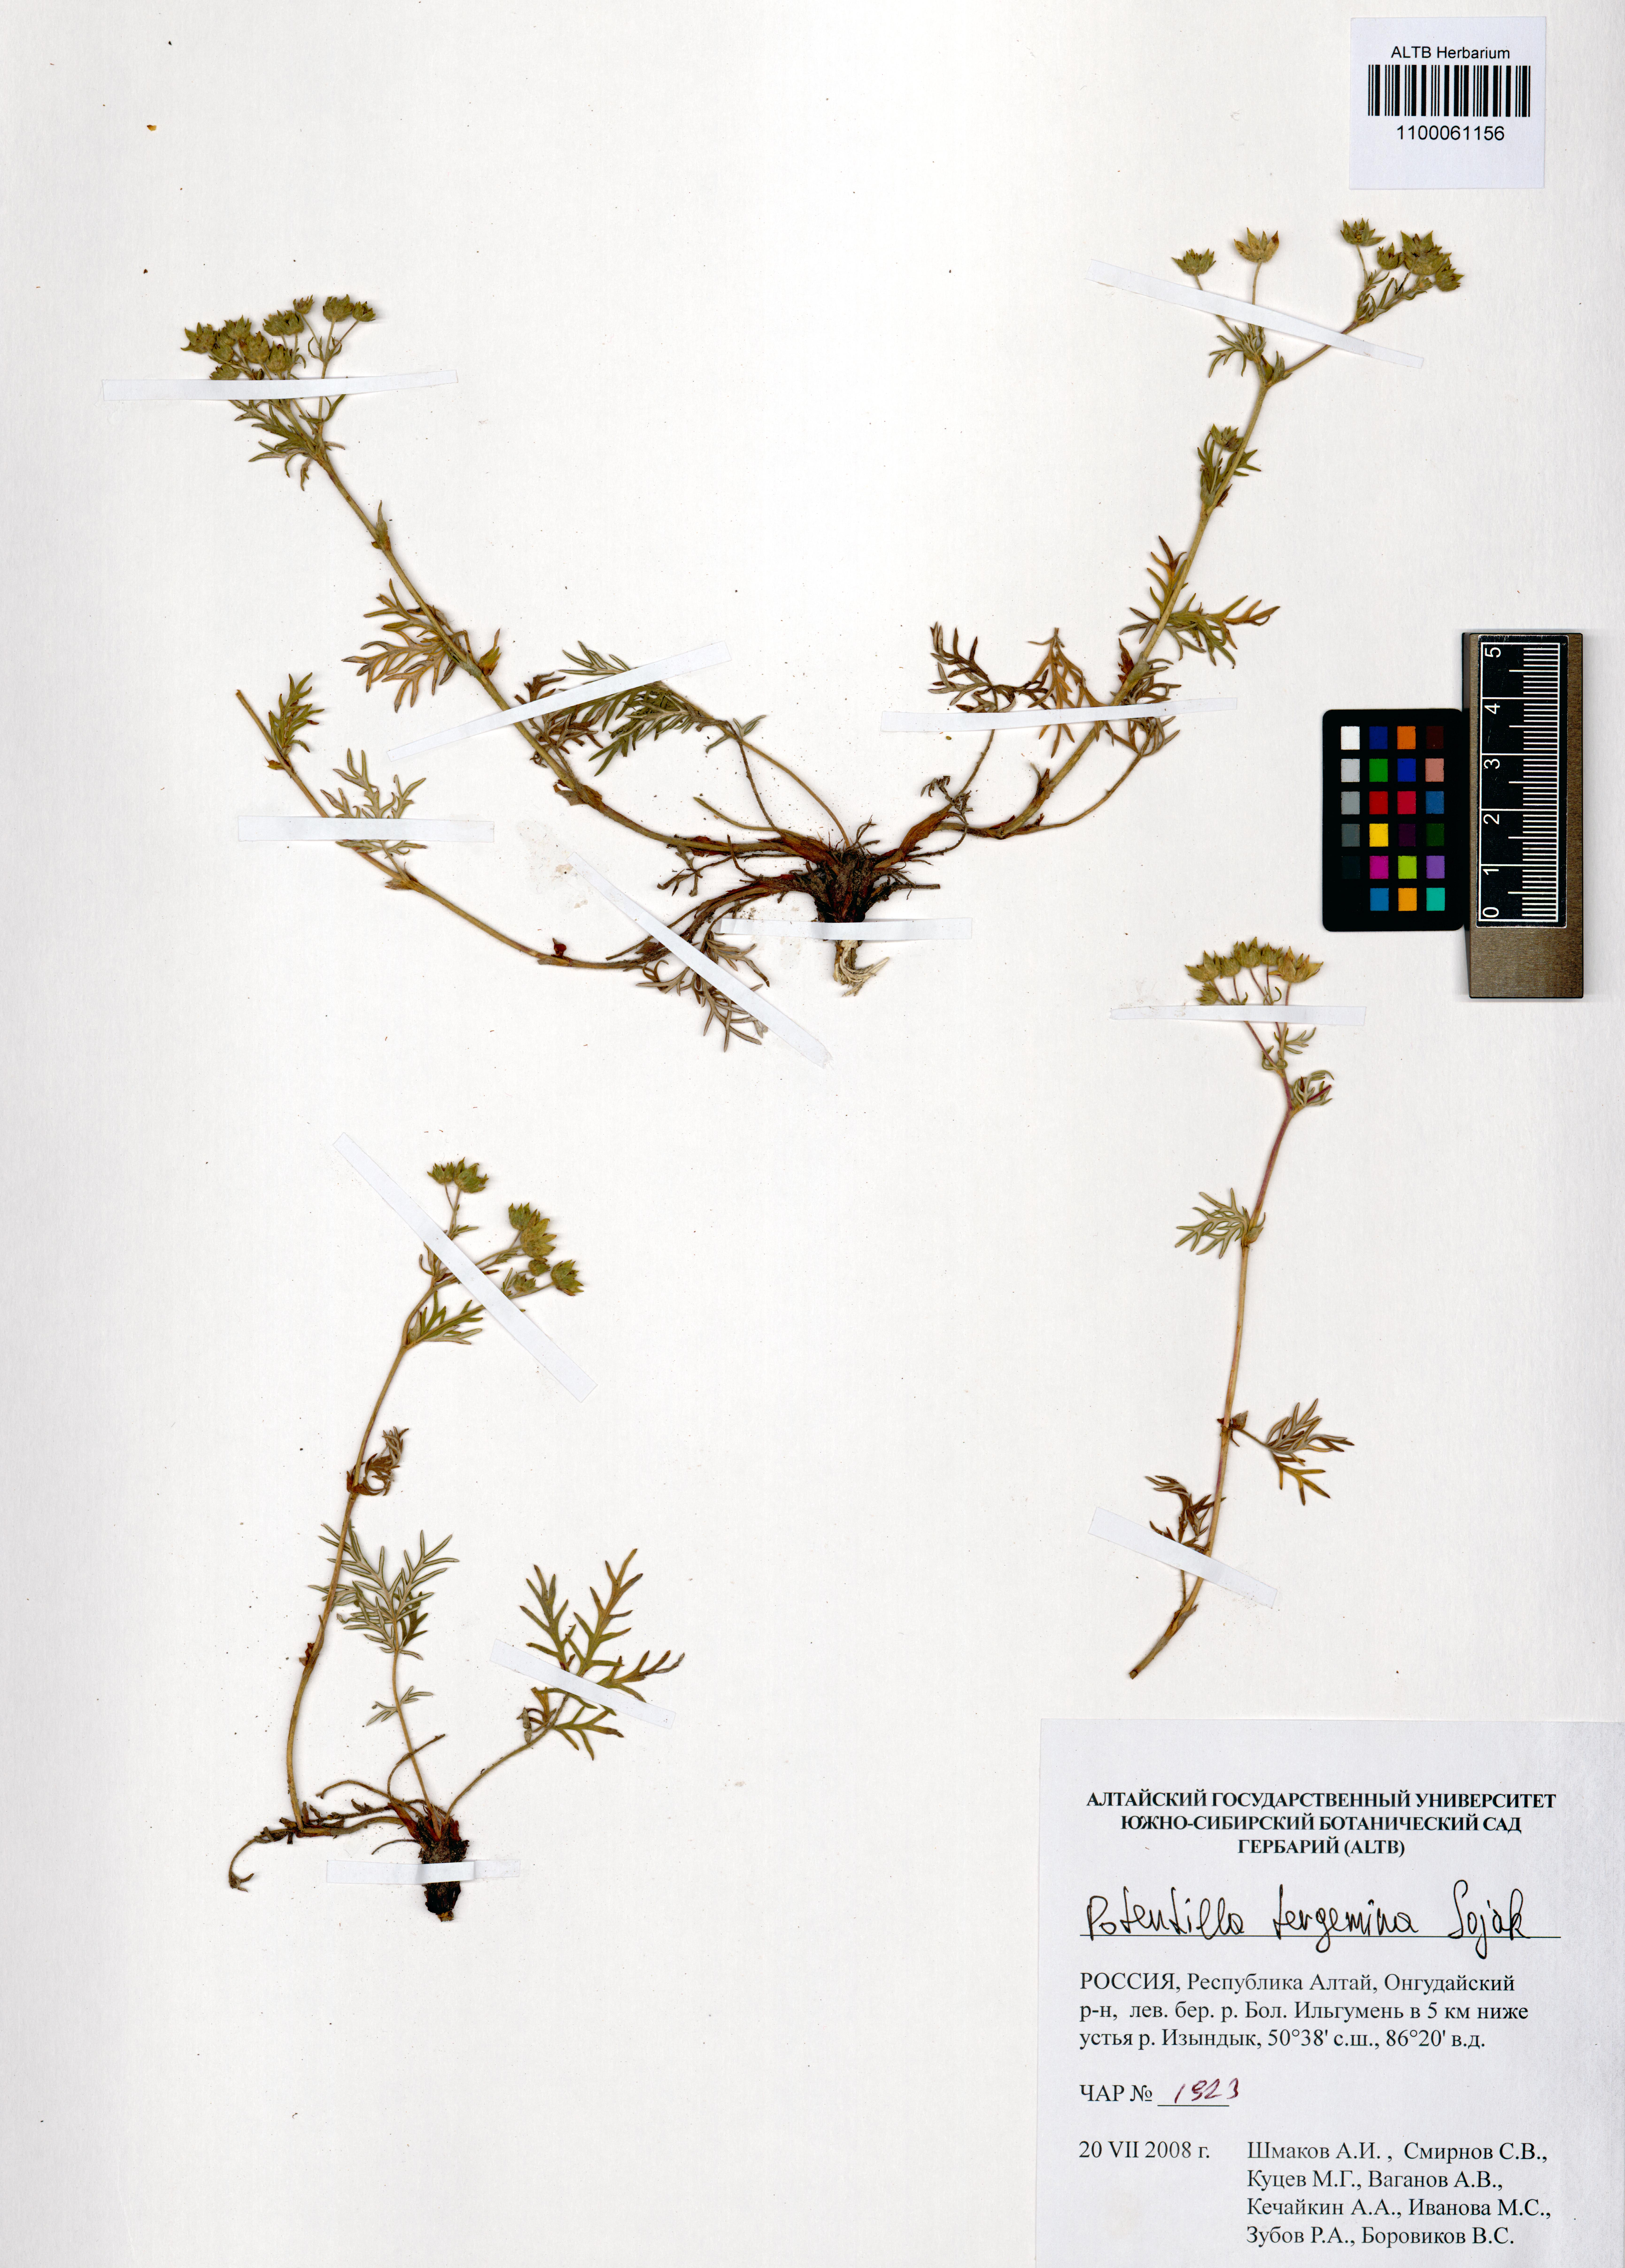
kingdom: Plantae
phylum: Tracheophyta
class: Magnoliopsida
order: Rosales
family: Rosaceae
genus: Potentilla
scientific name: Potentilla tergemina
